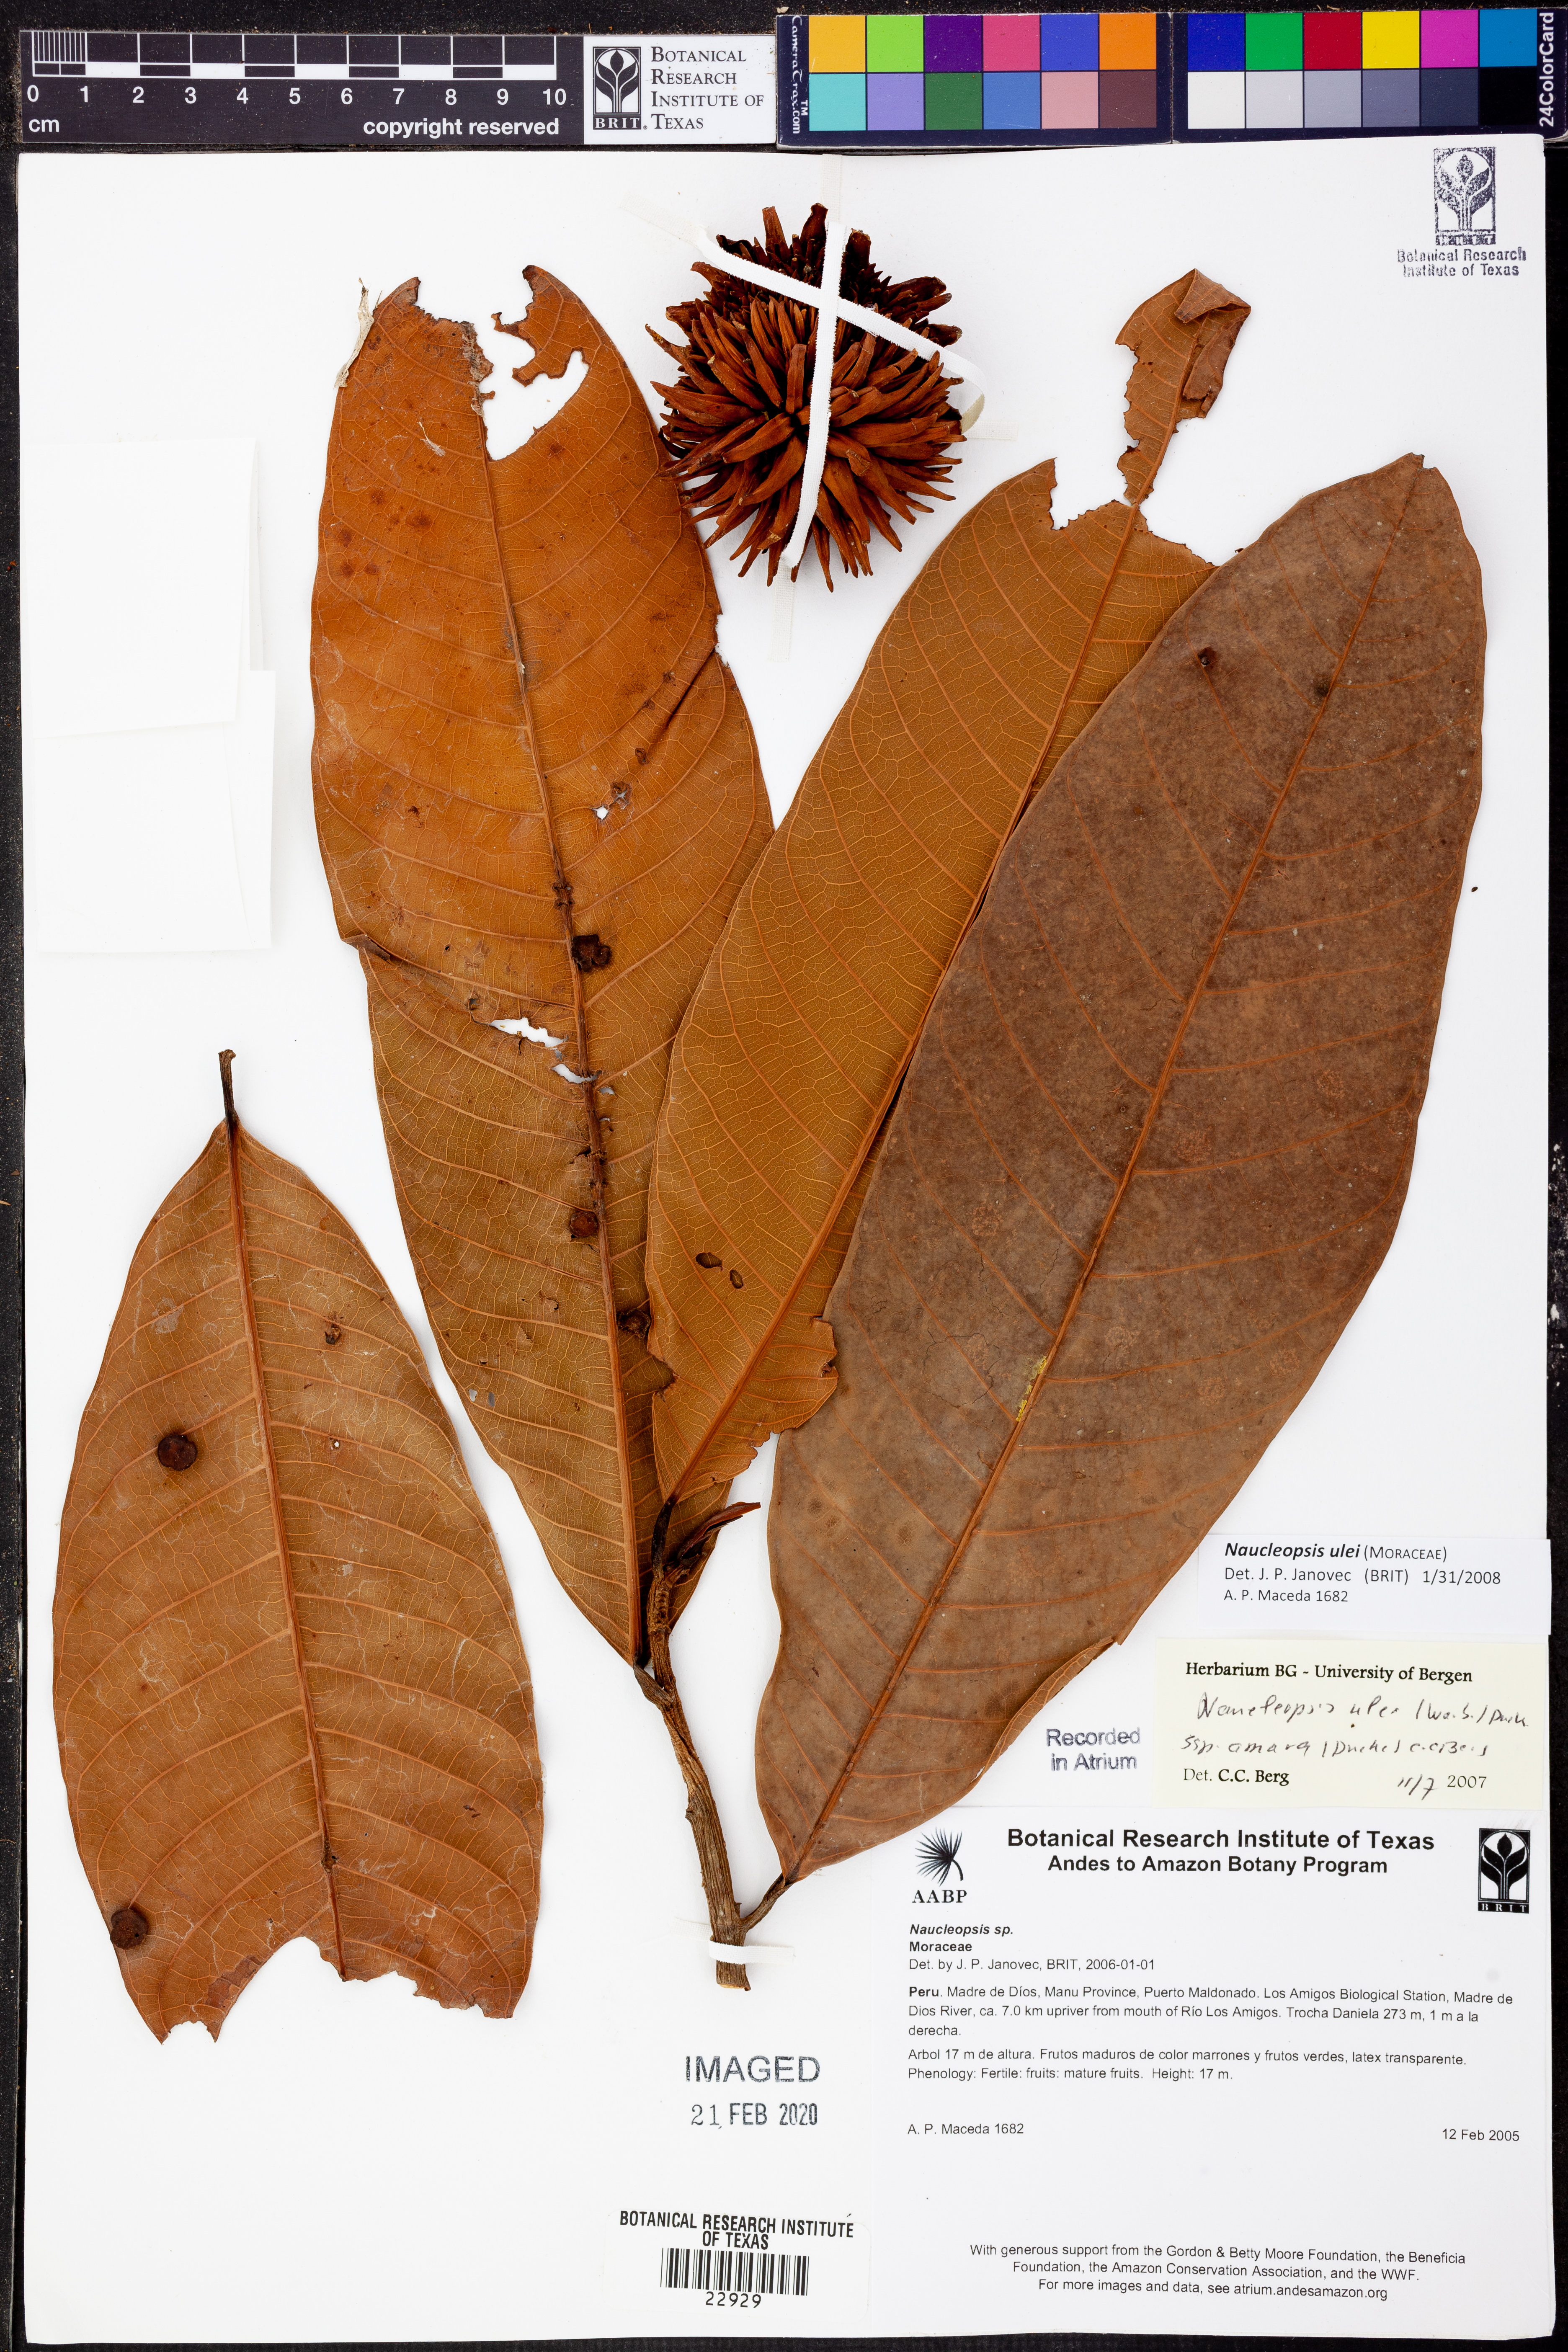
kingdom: Plantae
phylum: Tracheophyta
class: Magnoliopsida
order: Rosales
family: Moraceae
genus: Naucleopsis
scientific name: Naucleopsis
